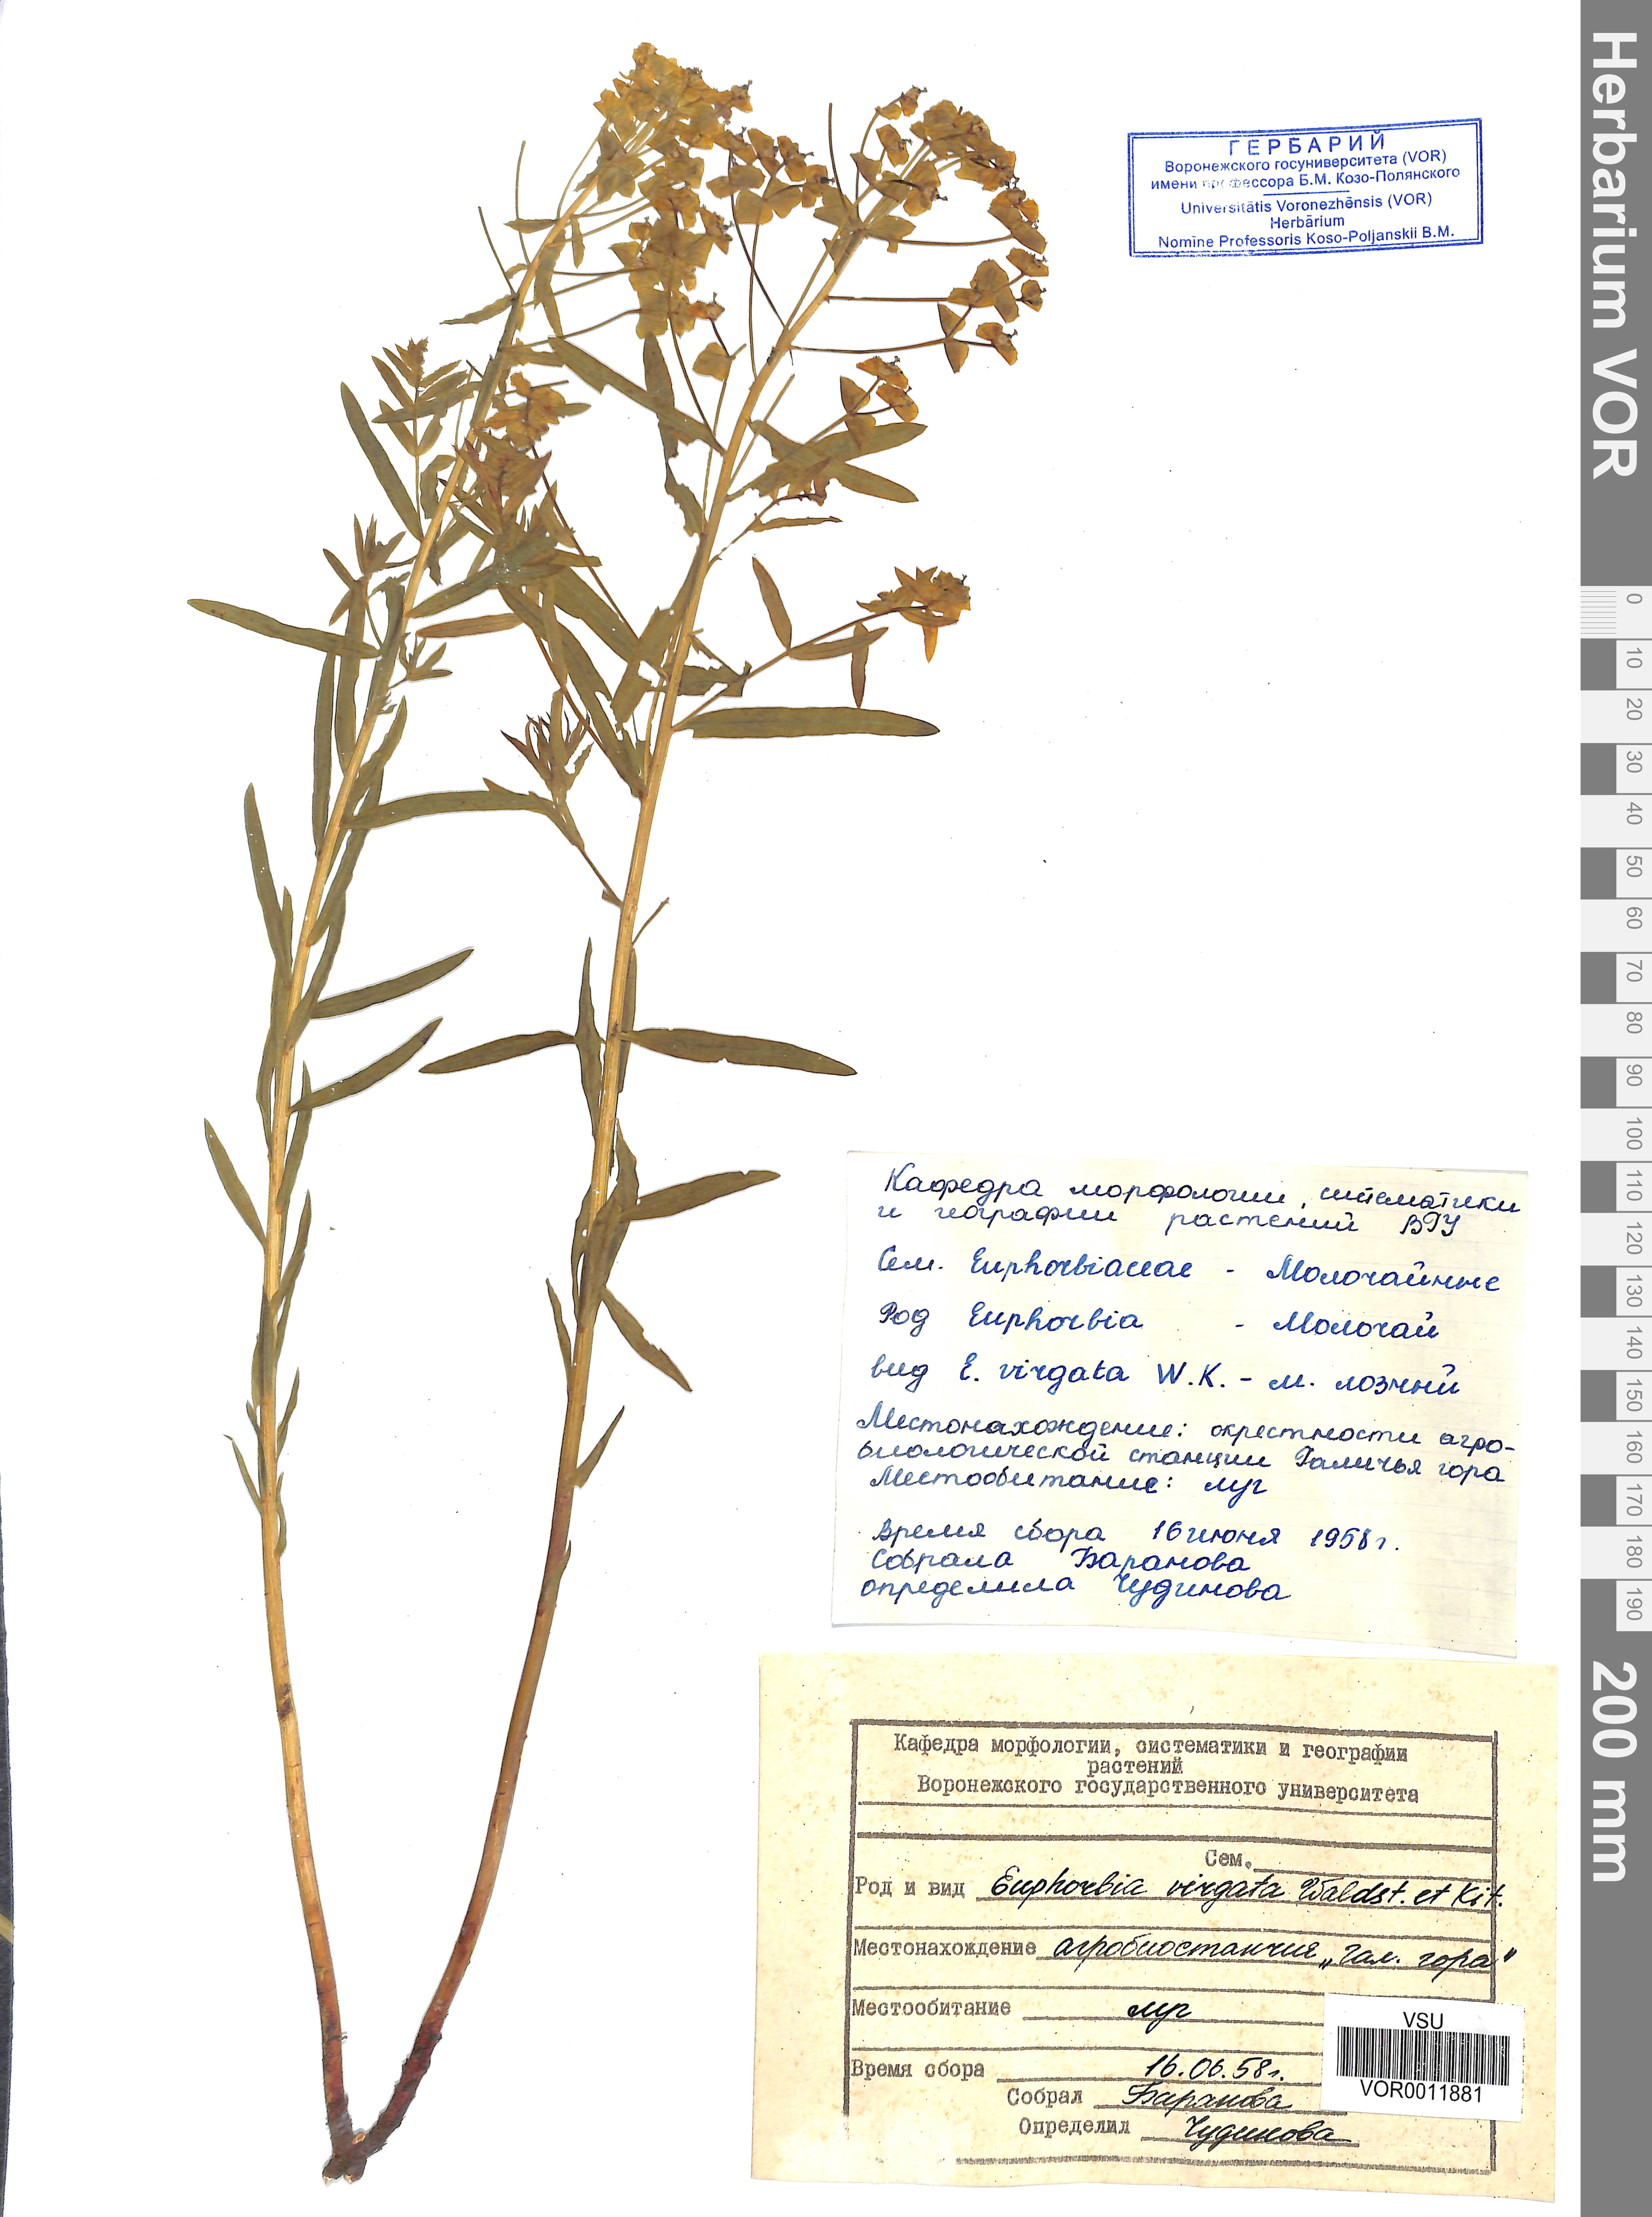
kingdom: Plantae
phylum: Tracheophyta
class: Magnoliopsida
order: Malpighiales
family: Euphorbiaceae
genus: Euphorbia
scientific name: Euphorbia virgata
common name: Leafy spurge
